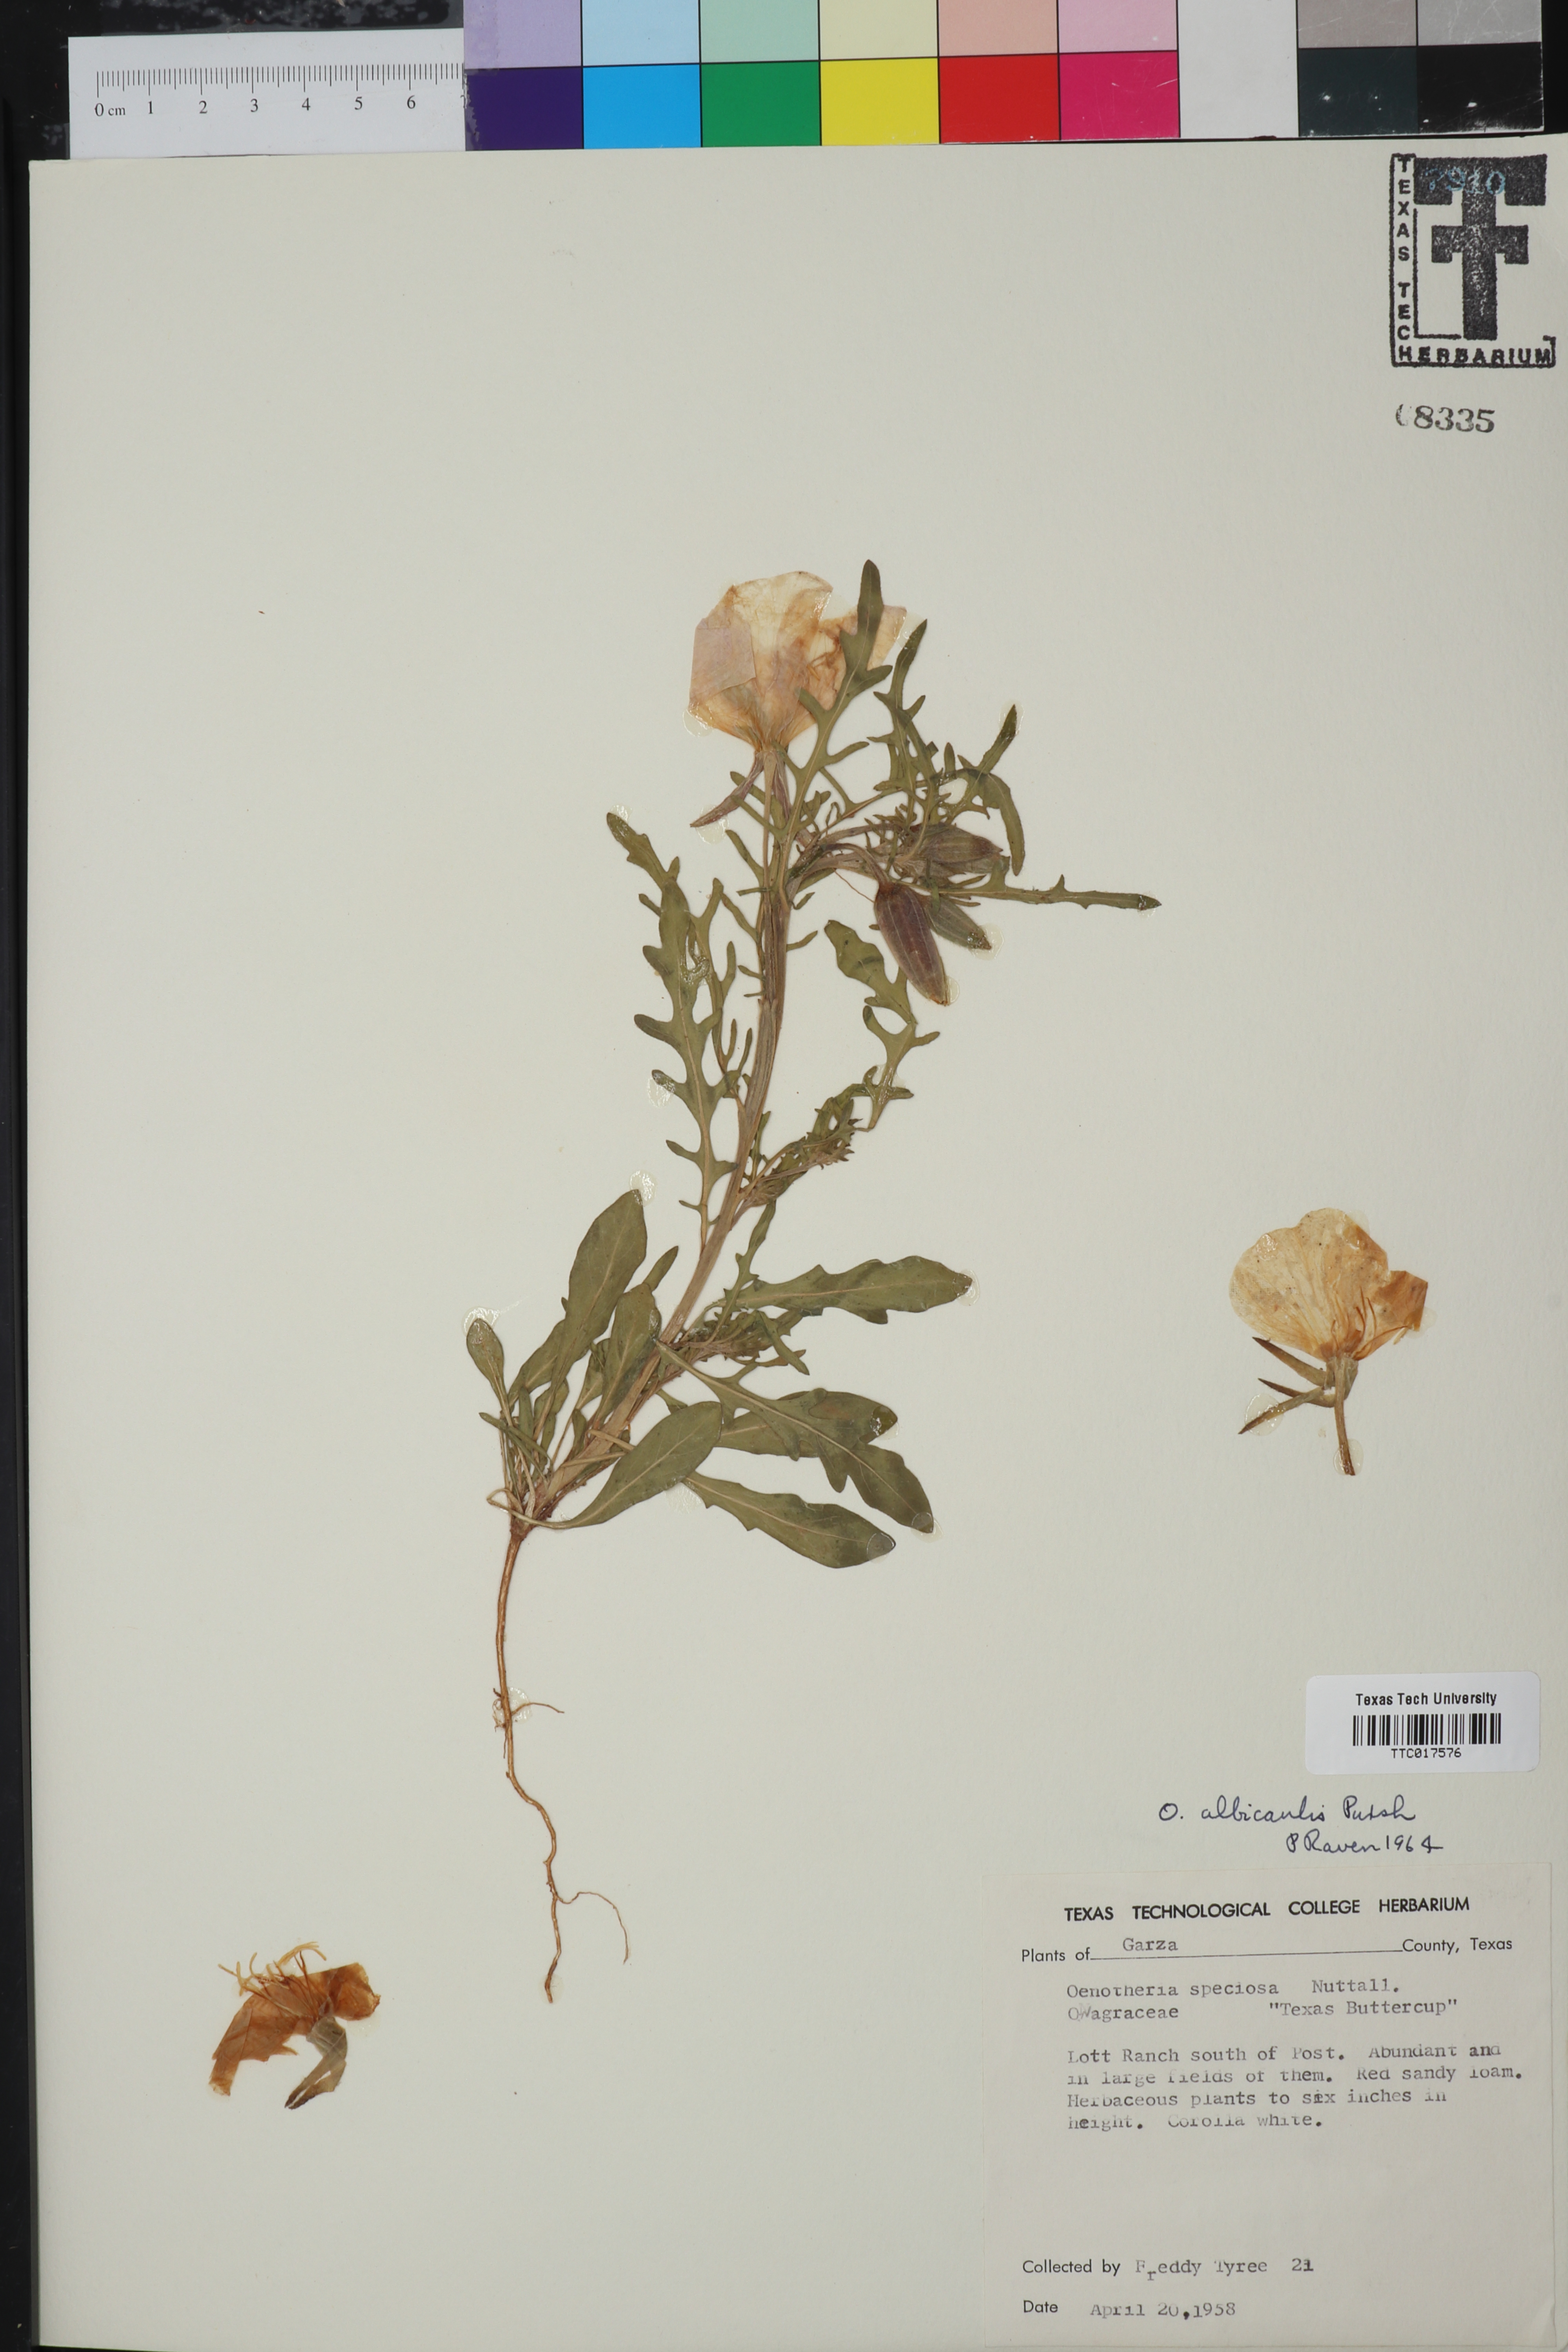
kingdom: Plantae
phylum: Tracheophyta
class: Magnoliopsida
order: Myrtales
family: Onagraceae
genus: Oenothera
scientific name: Oenothera albicaulis
